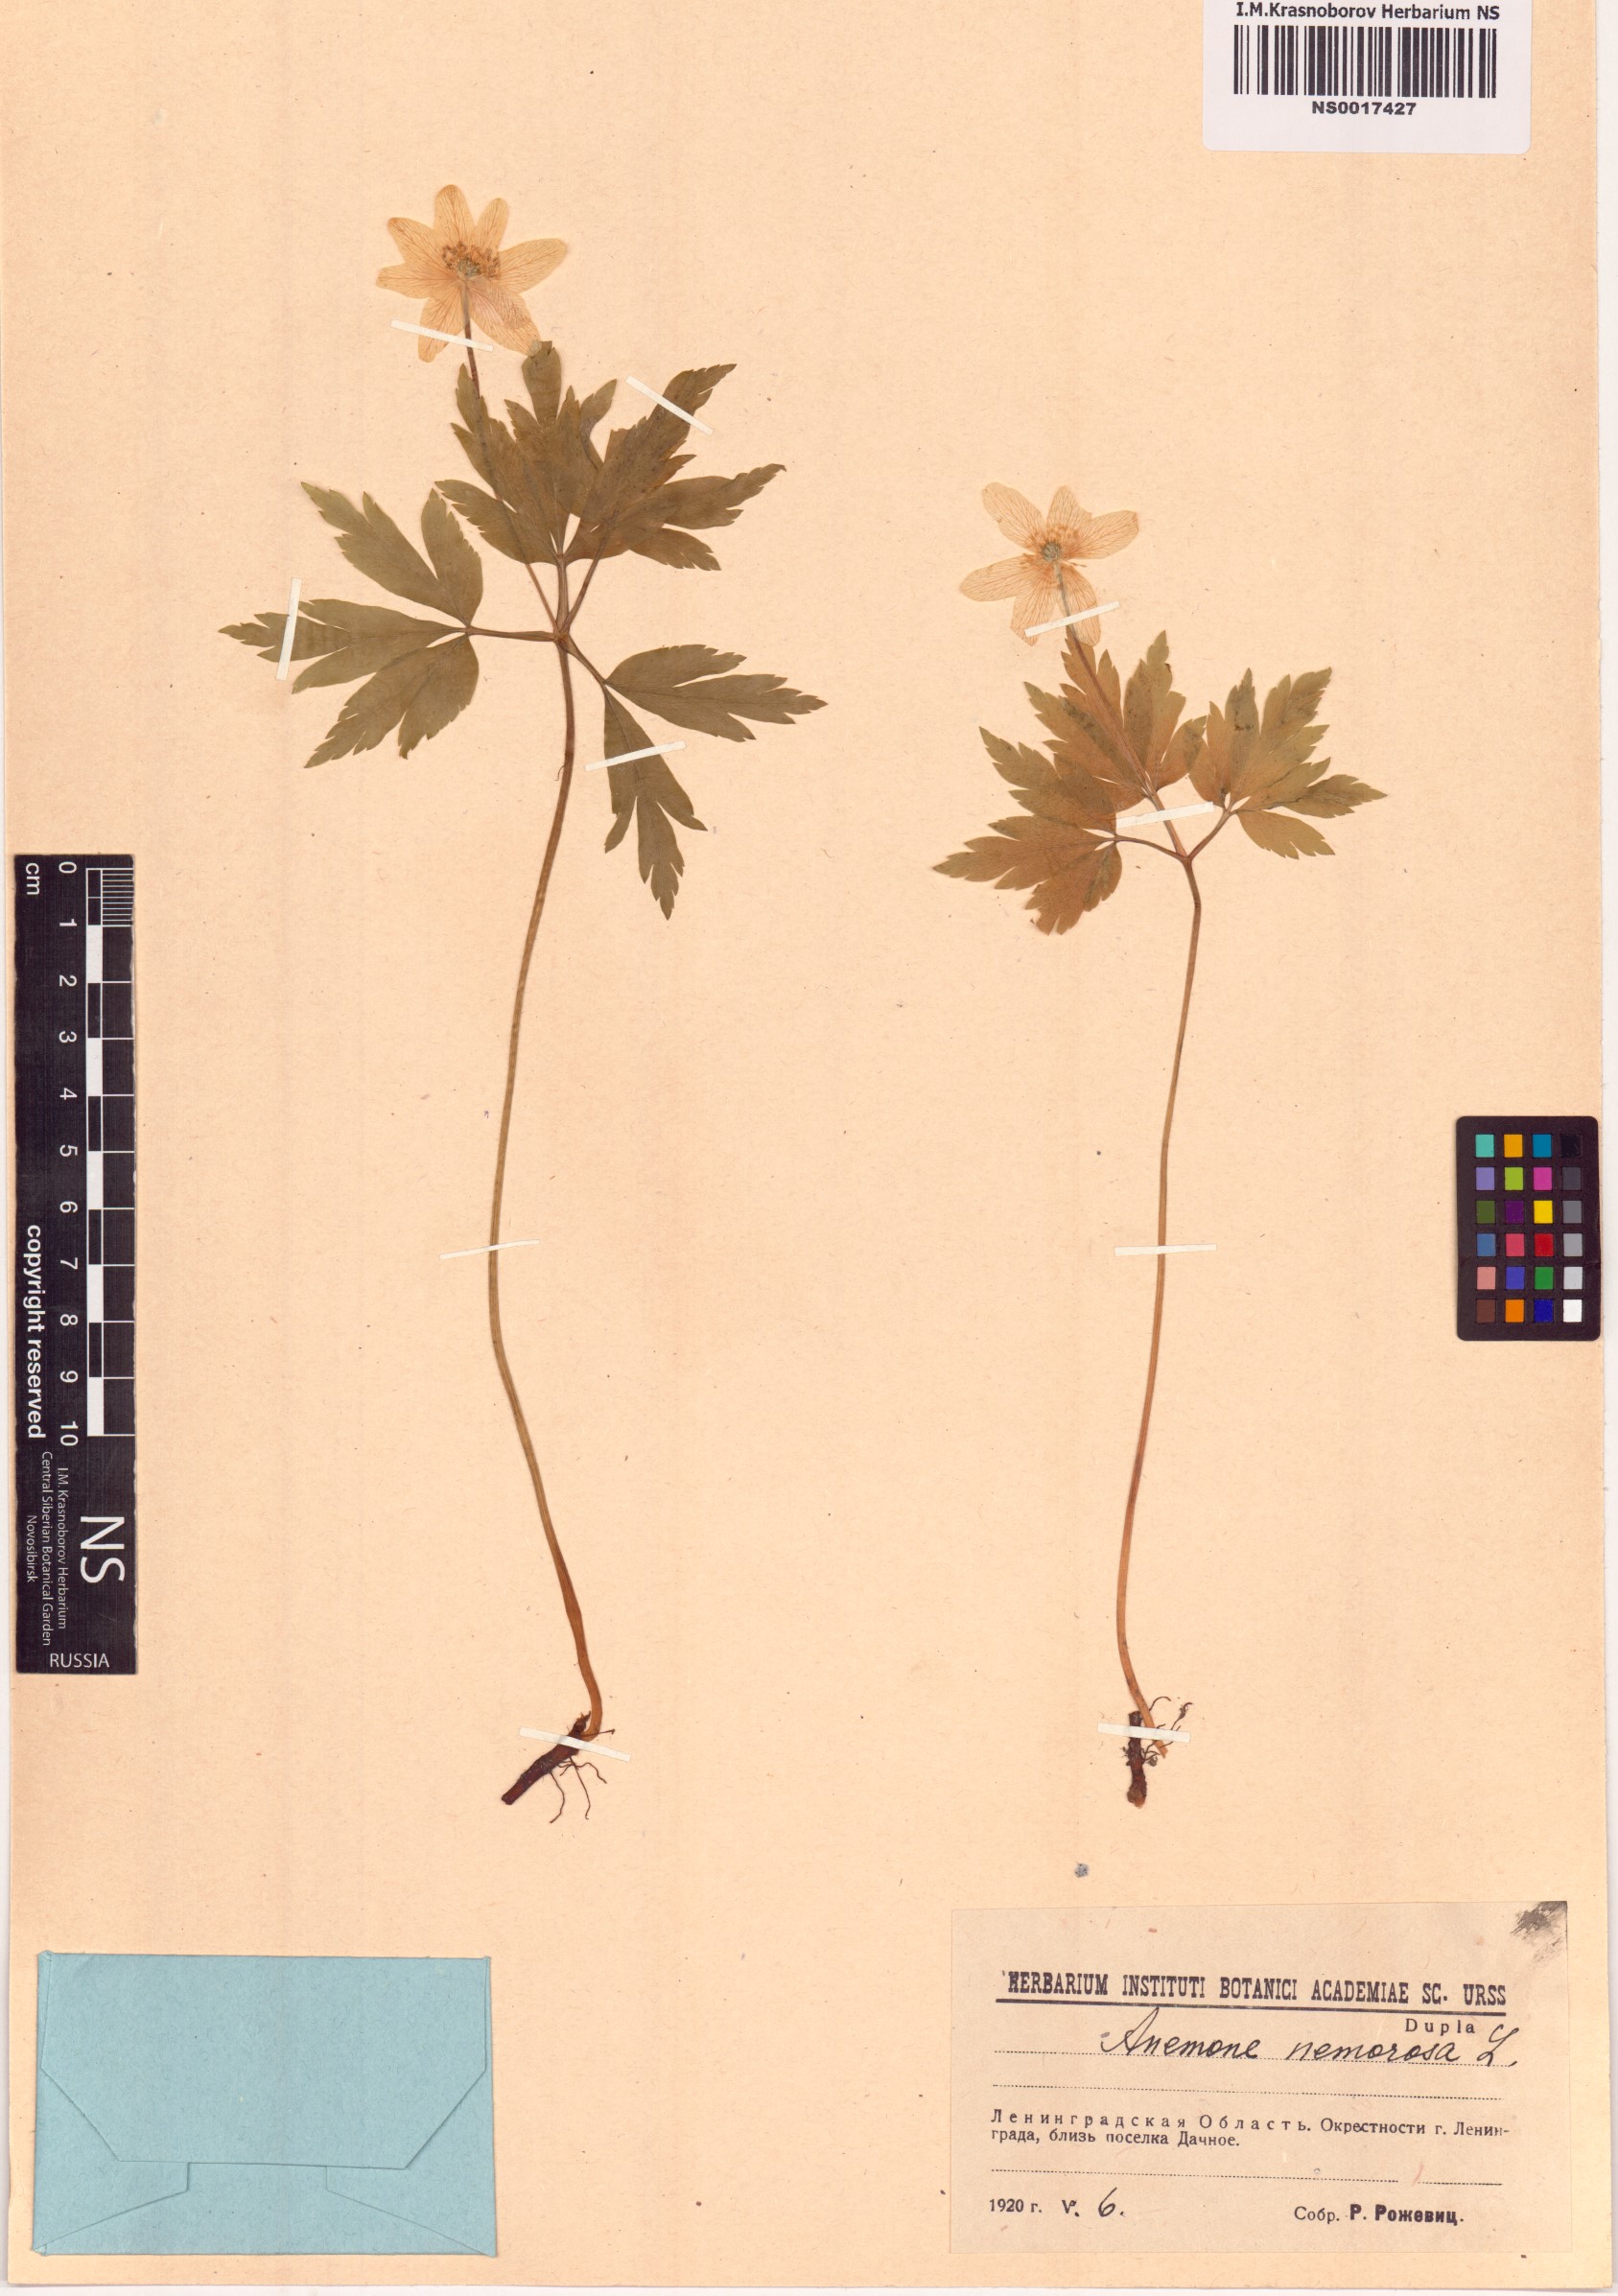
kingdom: Plantae
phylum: Tracheophyta
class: Magnoliopsida
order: Ranunculales
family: Ranunculaceae
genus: Anemone
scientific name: Anemone nemorosa
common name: Wood anemone
